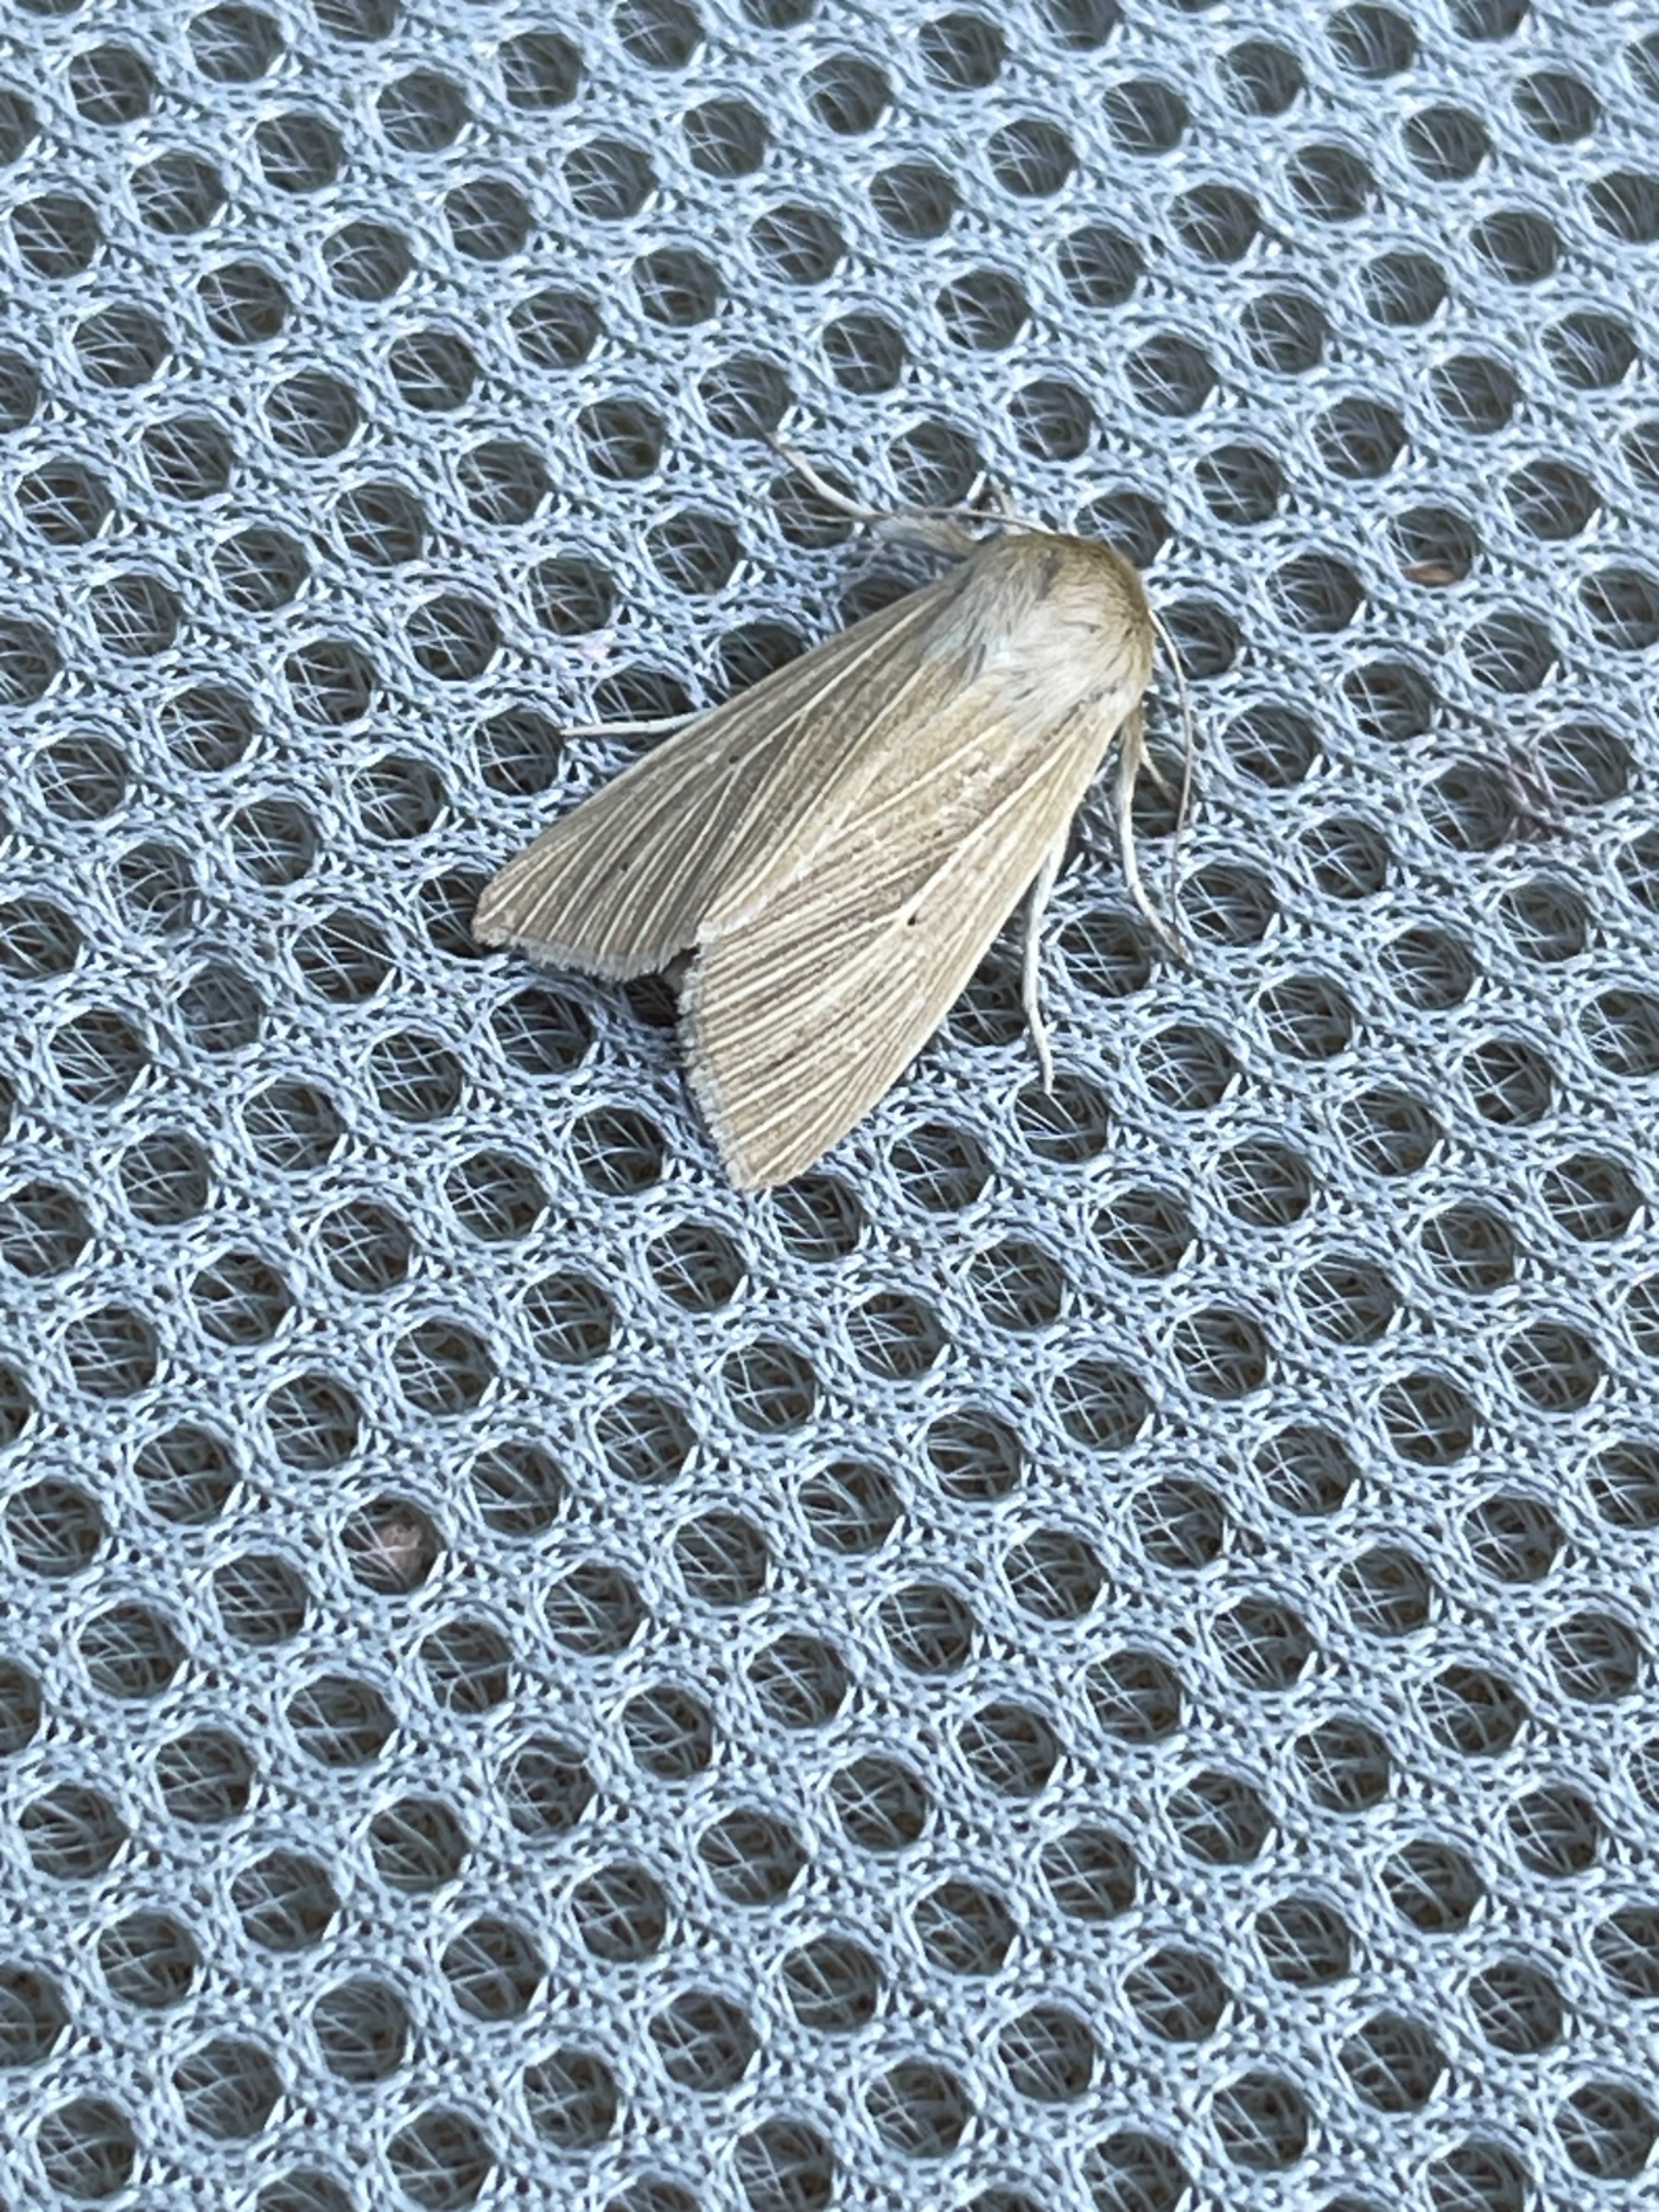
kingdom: Animalia
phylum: Arthropoda
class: Insecta
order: Lepidoptera
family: Noctuidae
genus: Mythimna
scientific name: Mythimna pallens
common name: Halmugle
